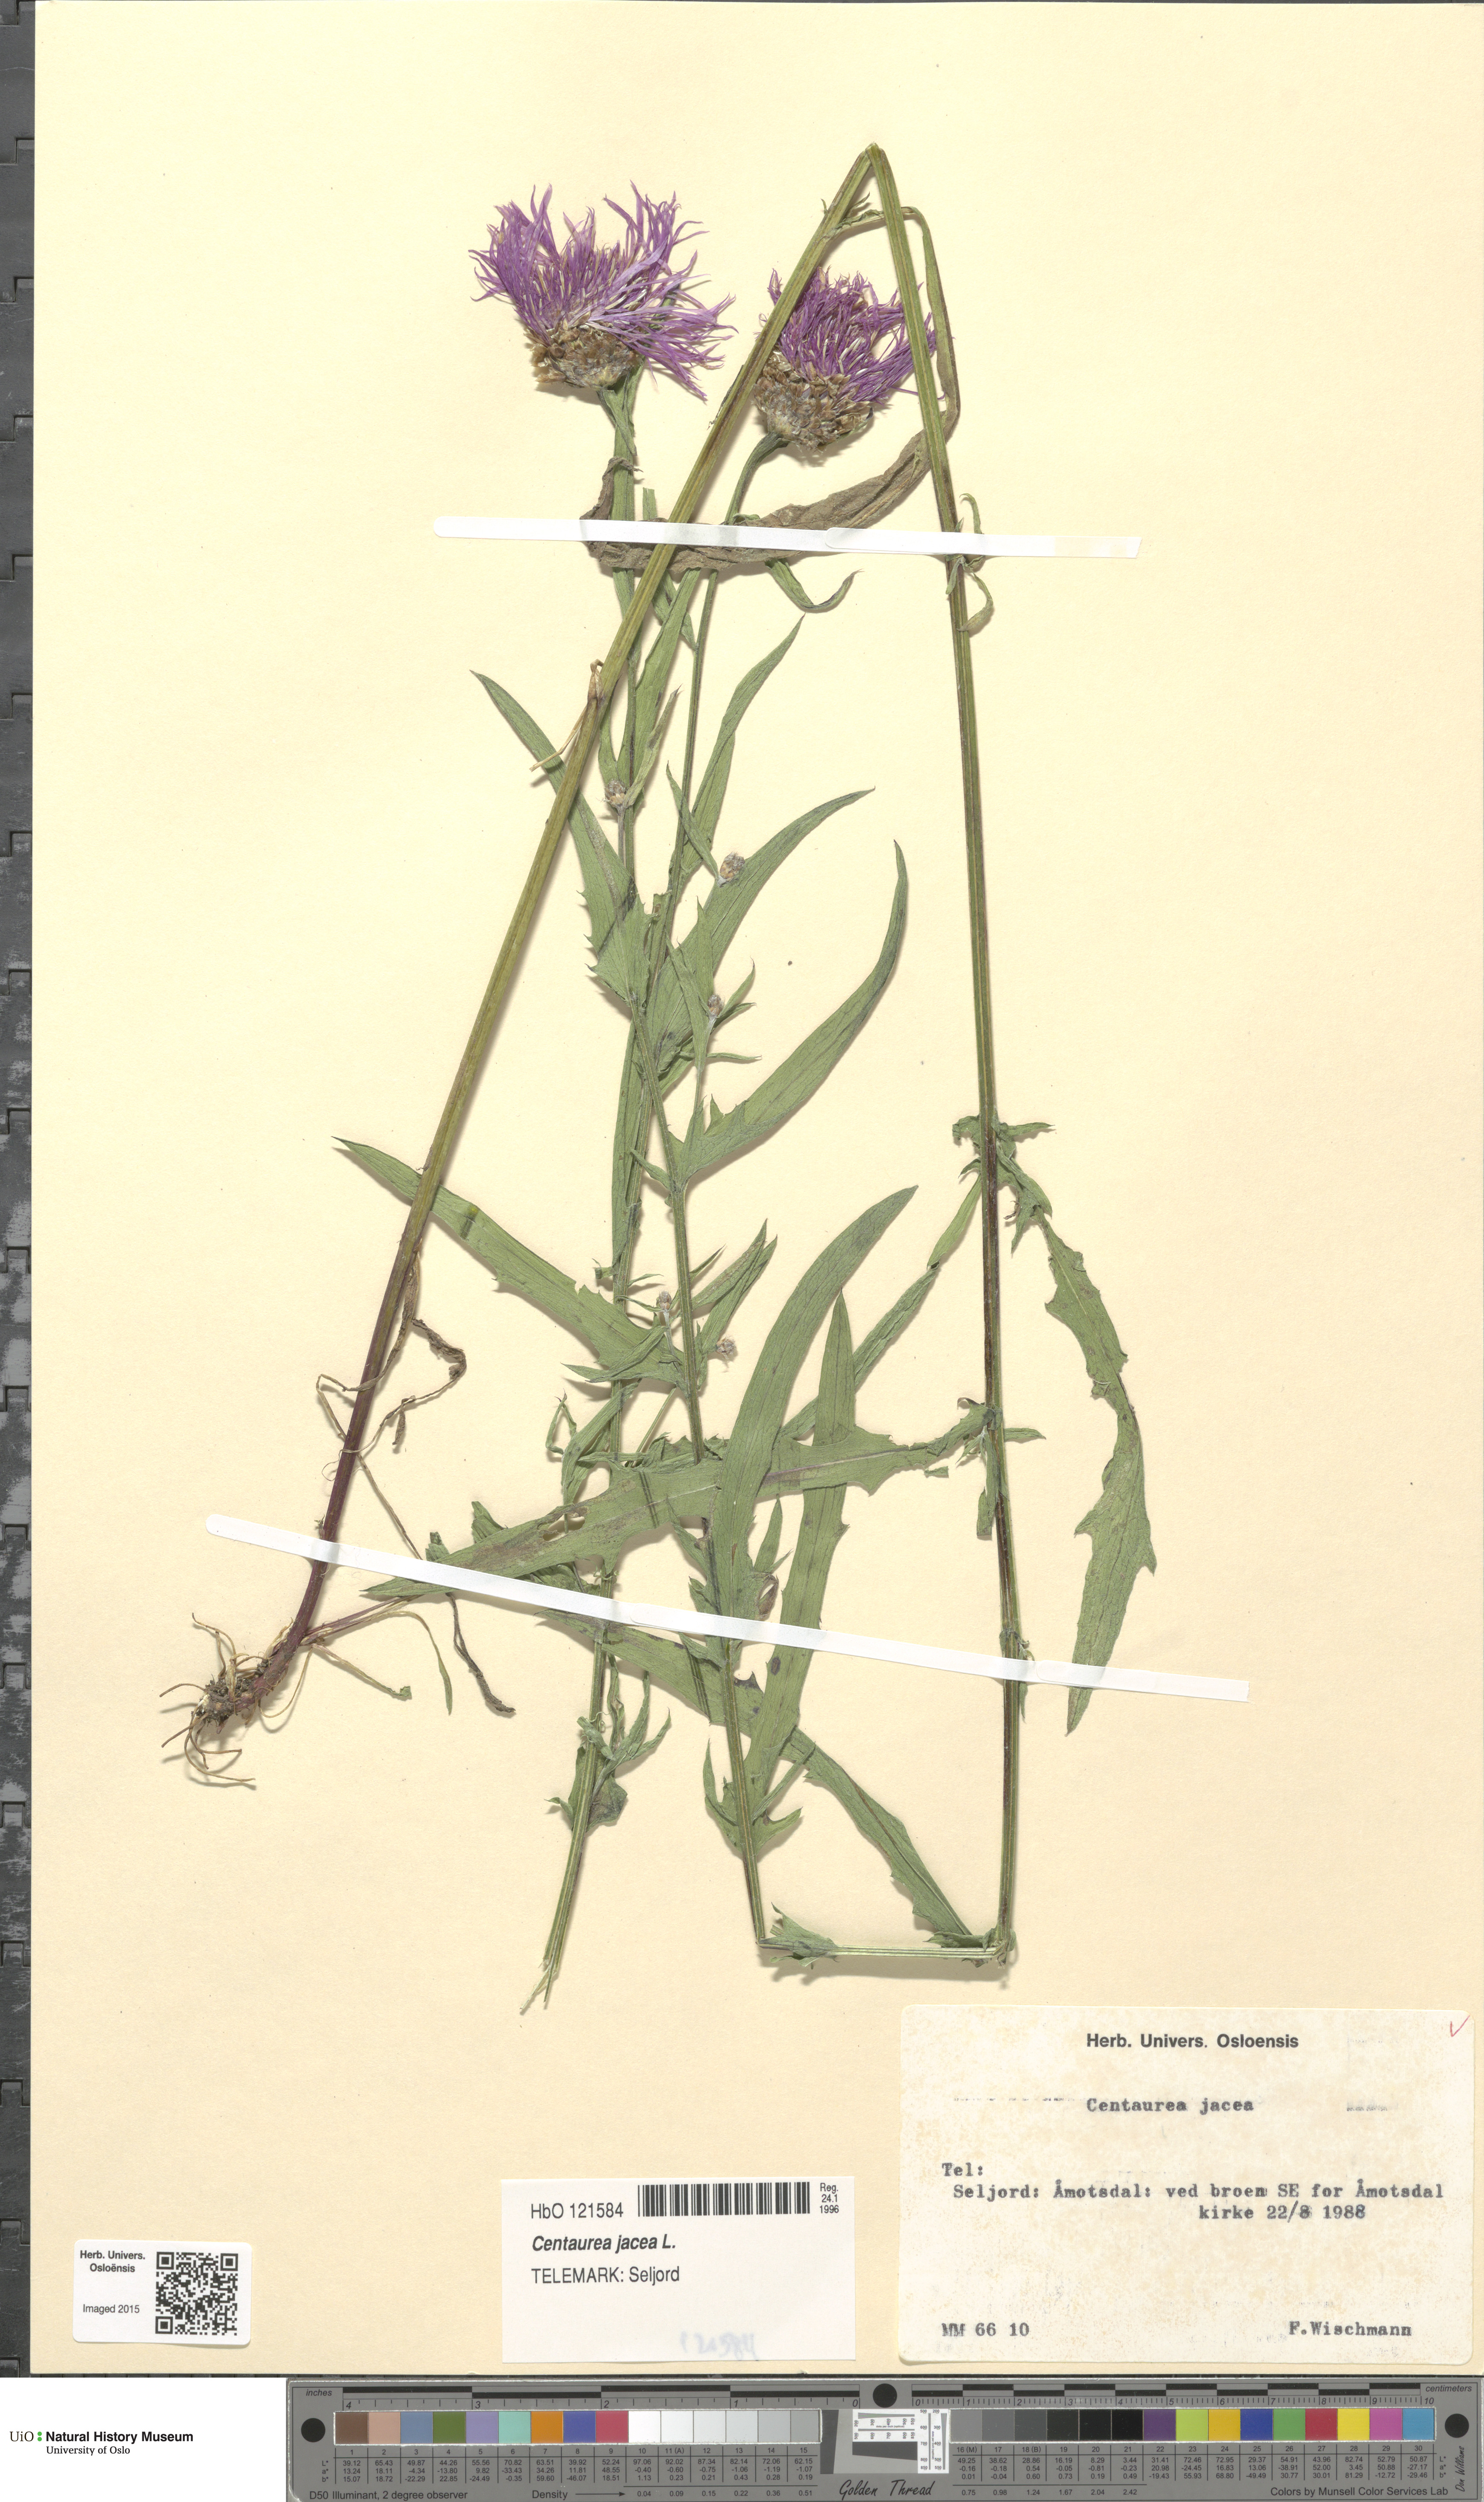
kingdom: Plantae
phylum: Tracheophyta
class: Magnoliopsida
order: Asterales
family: Asteraceae
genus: Centaurea
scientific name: Centaurea jacea
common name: Brown knapweed
